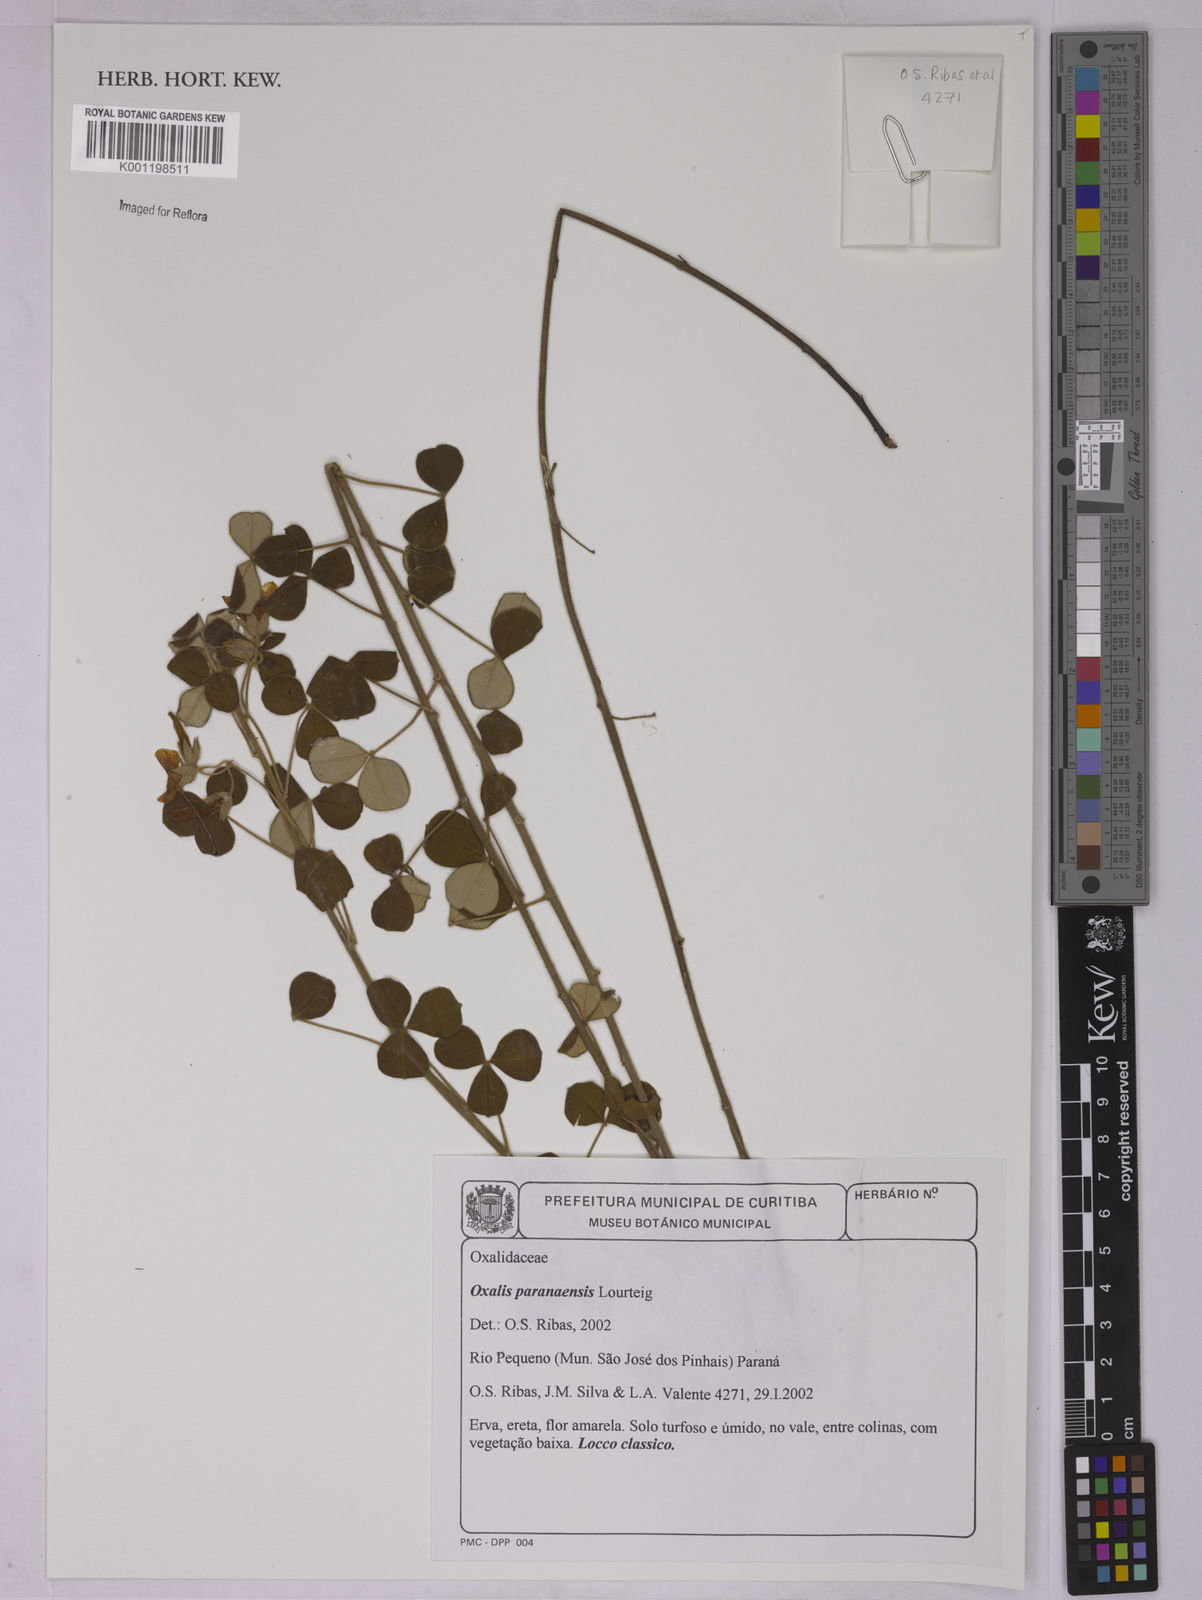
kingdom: Plantae
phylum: Tracheophyta
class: Magnoliopsida
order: Oxalidales
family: Oxalidaceae
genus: Oxalis
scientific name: Oxalis paranaensis
